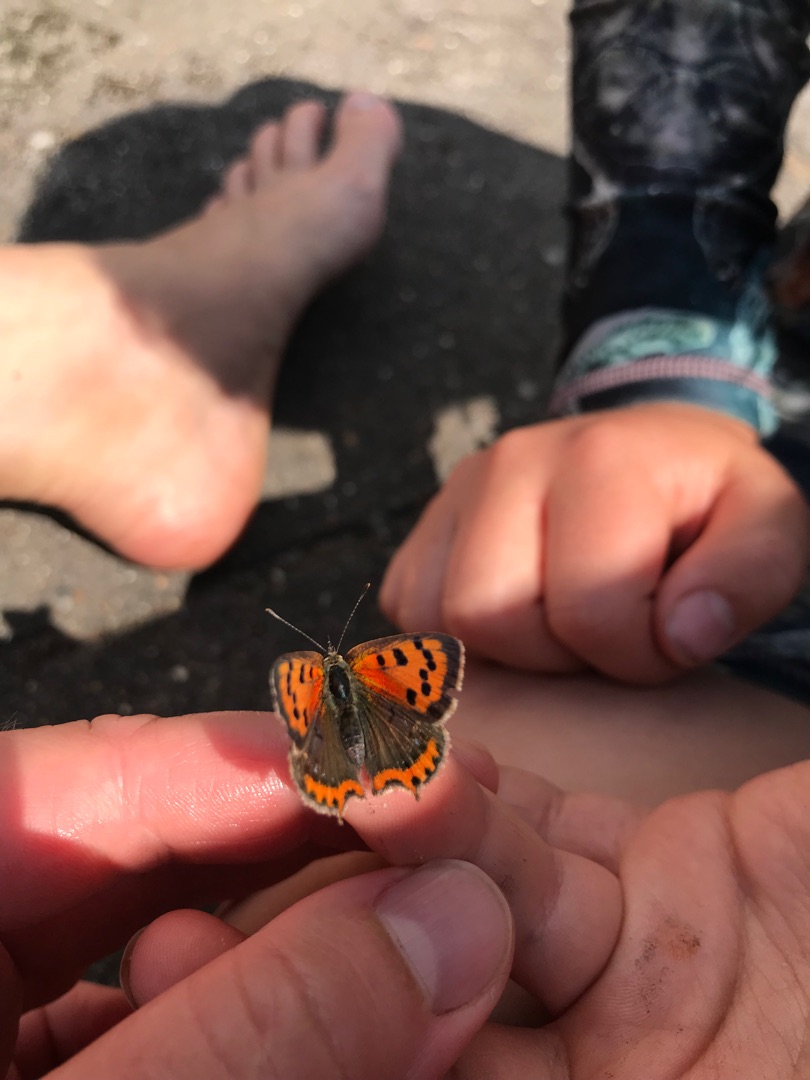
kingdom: Animalia
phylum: Arthropoda
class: Insecta
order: Lepidoptera
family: Lycaenidae
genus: Lycaena
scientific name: Lycaena phlaeas
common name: Lille ildfugl
